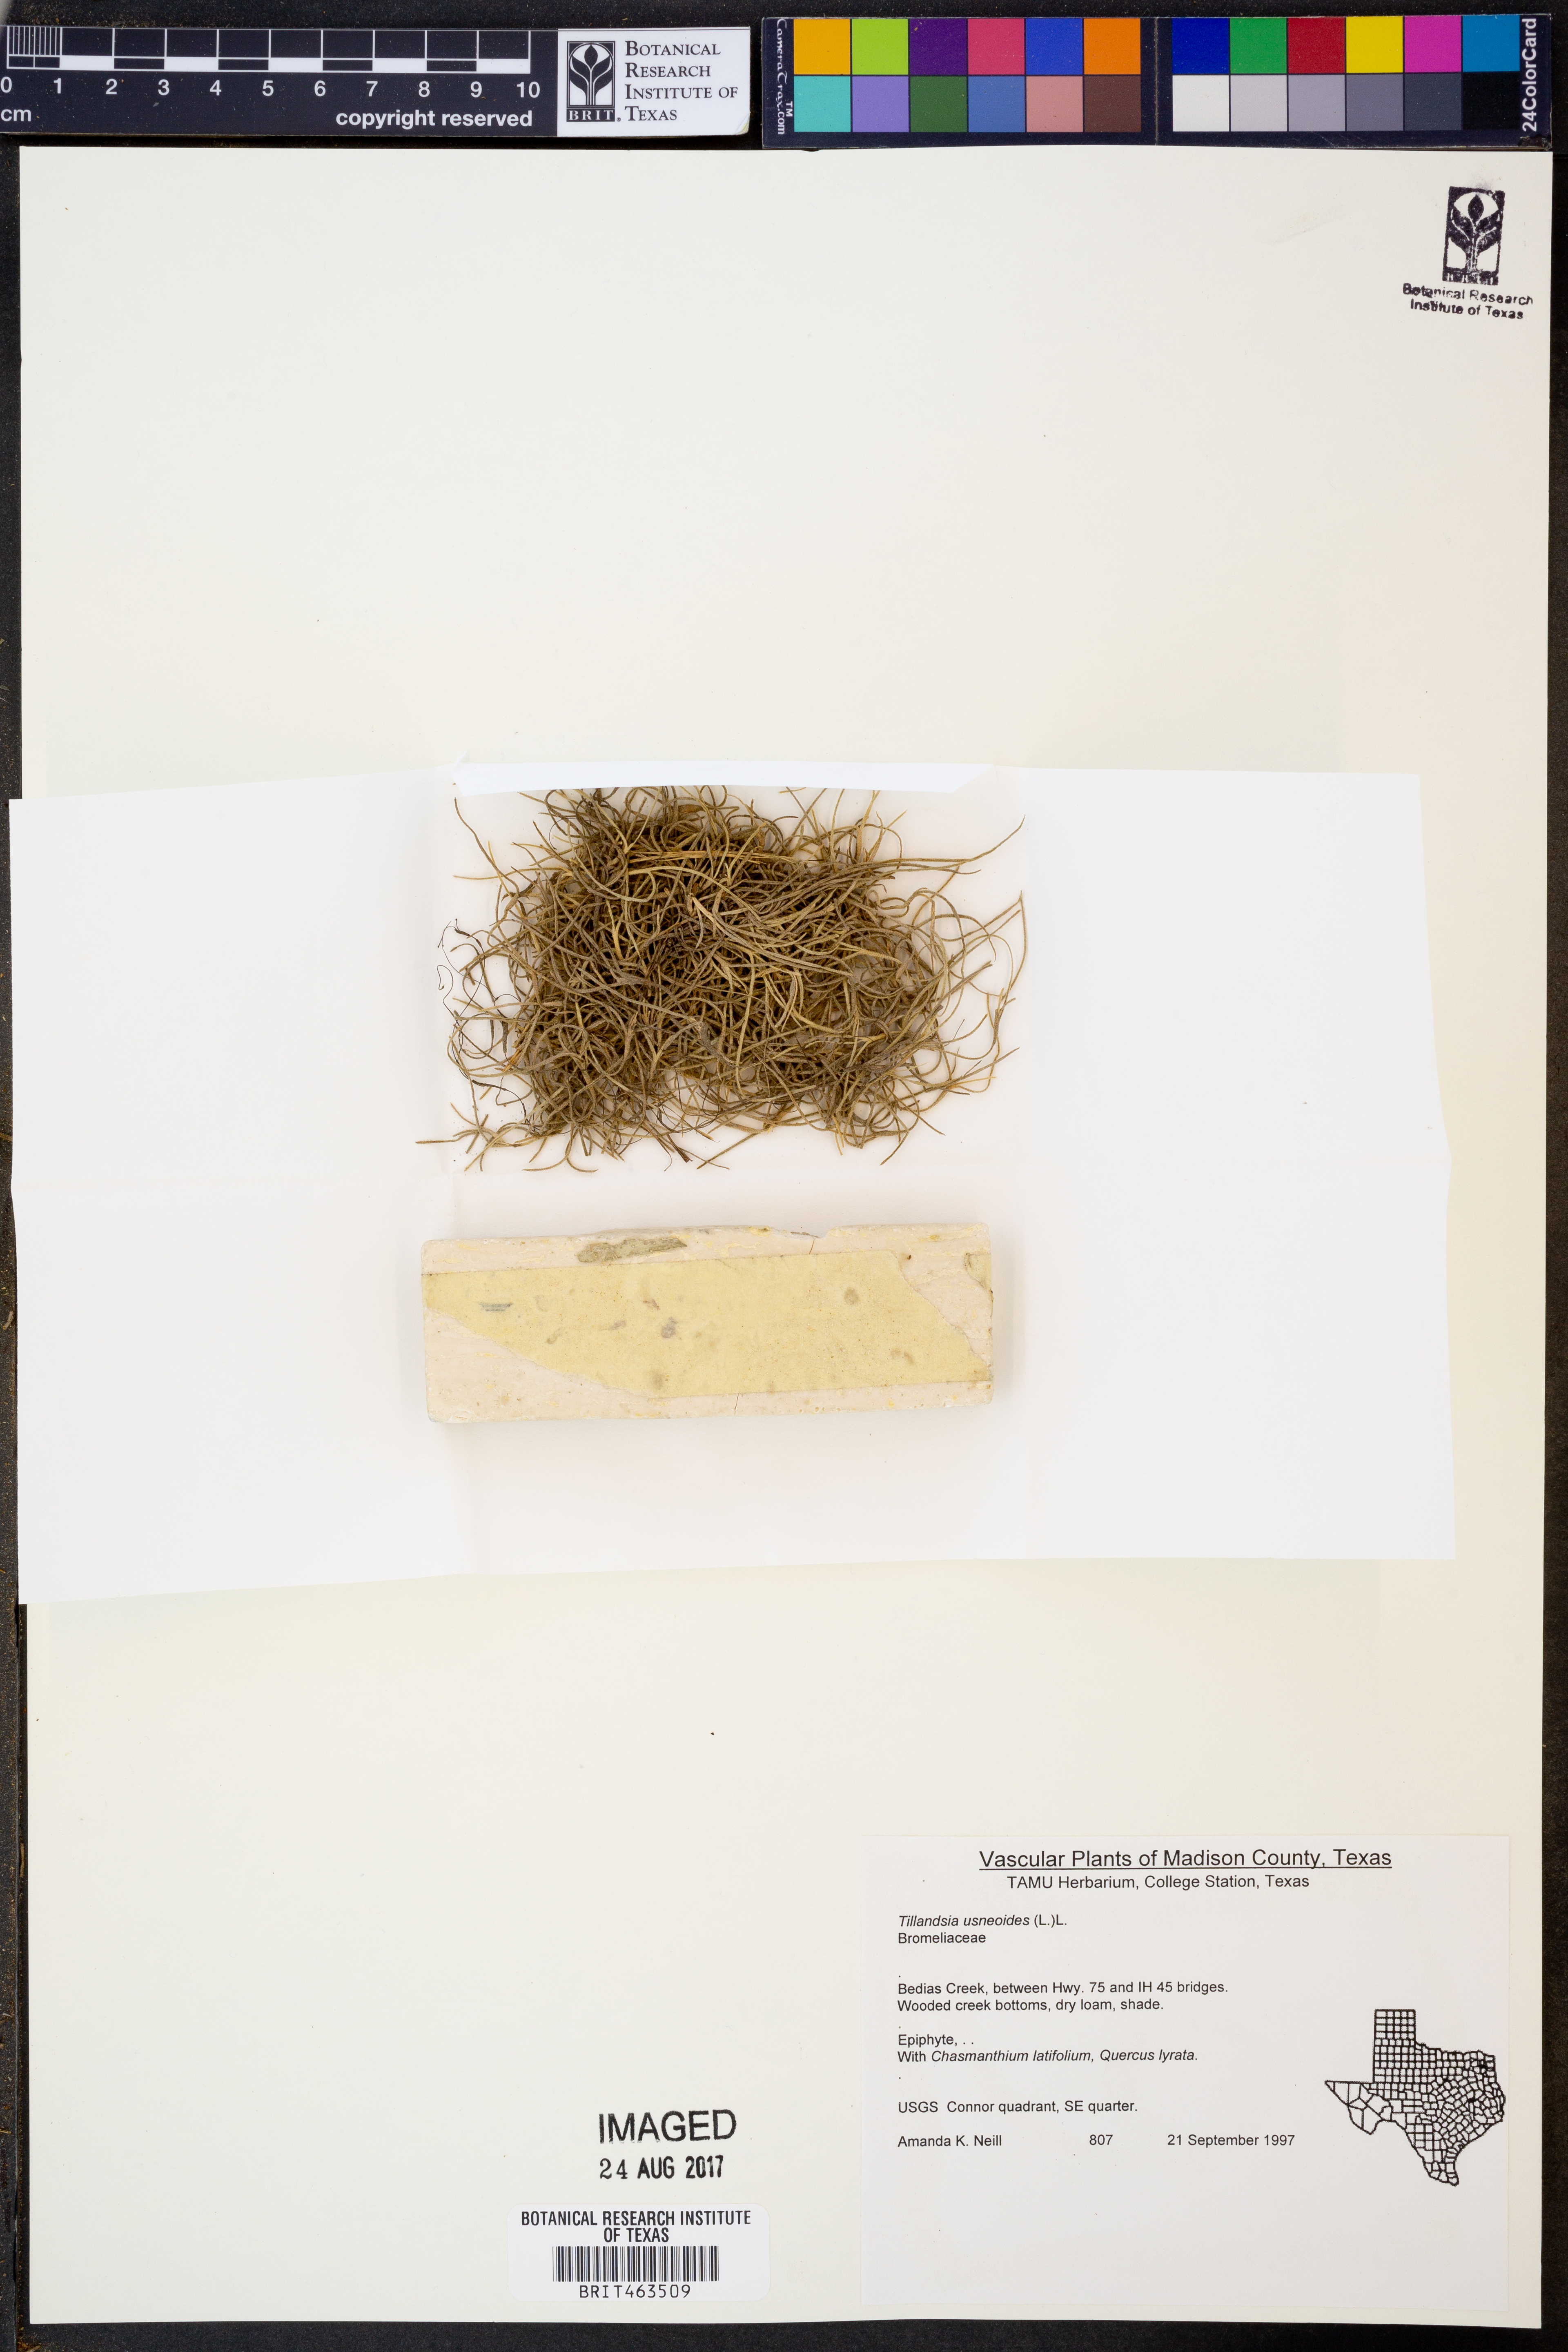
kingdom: Plantae
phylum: Tracheophyta
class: Liliopsida
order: Poales
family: Bromeliaceae
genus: Tillandsia
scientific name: Tillandsia usneoides
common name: Spanish moss
